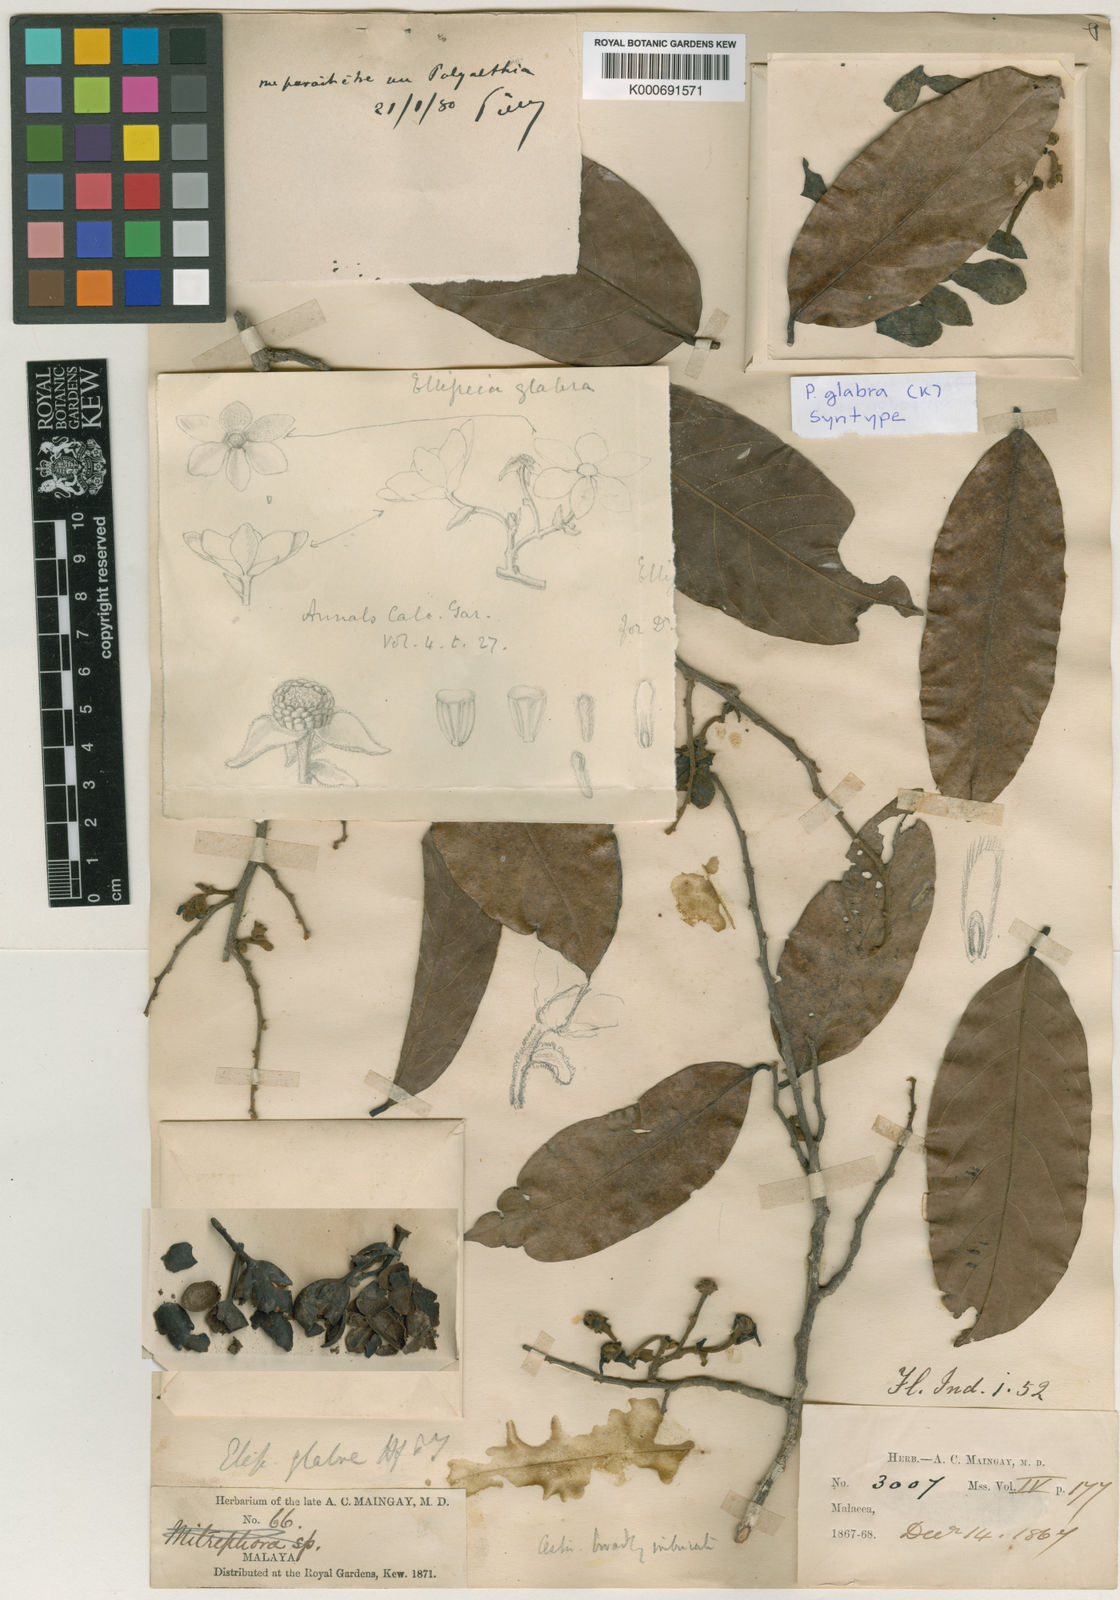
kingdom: Plantae
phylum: Tracheophyta
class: Magnoliopsida
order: Magnoliales
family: Annonaceae
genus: Polyalthia
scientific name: Polyalthia glabra
